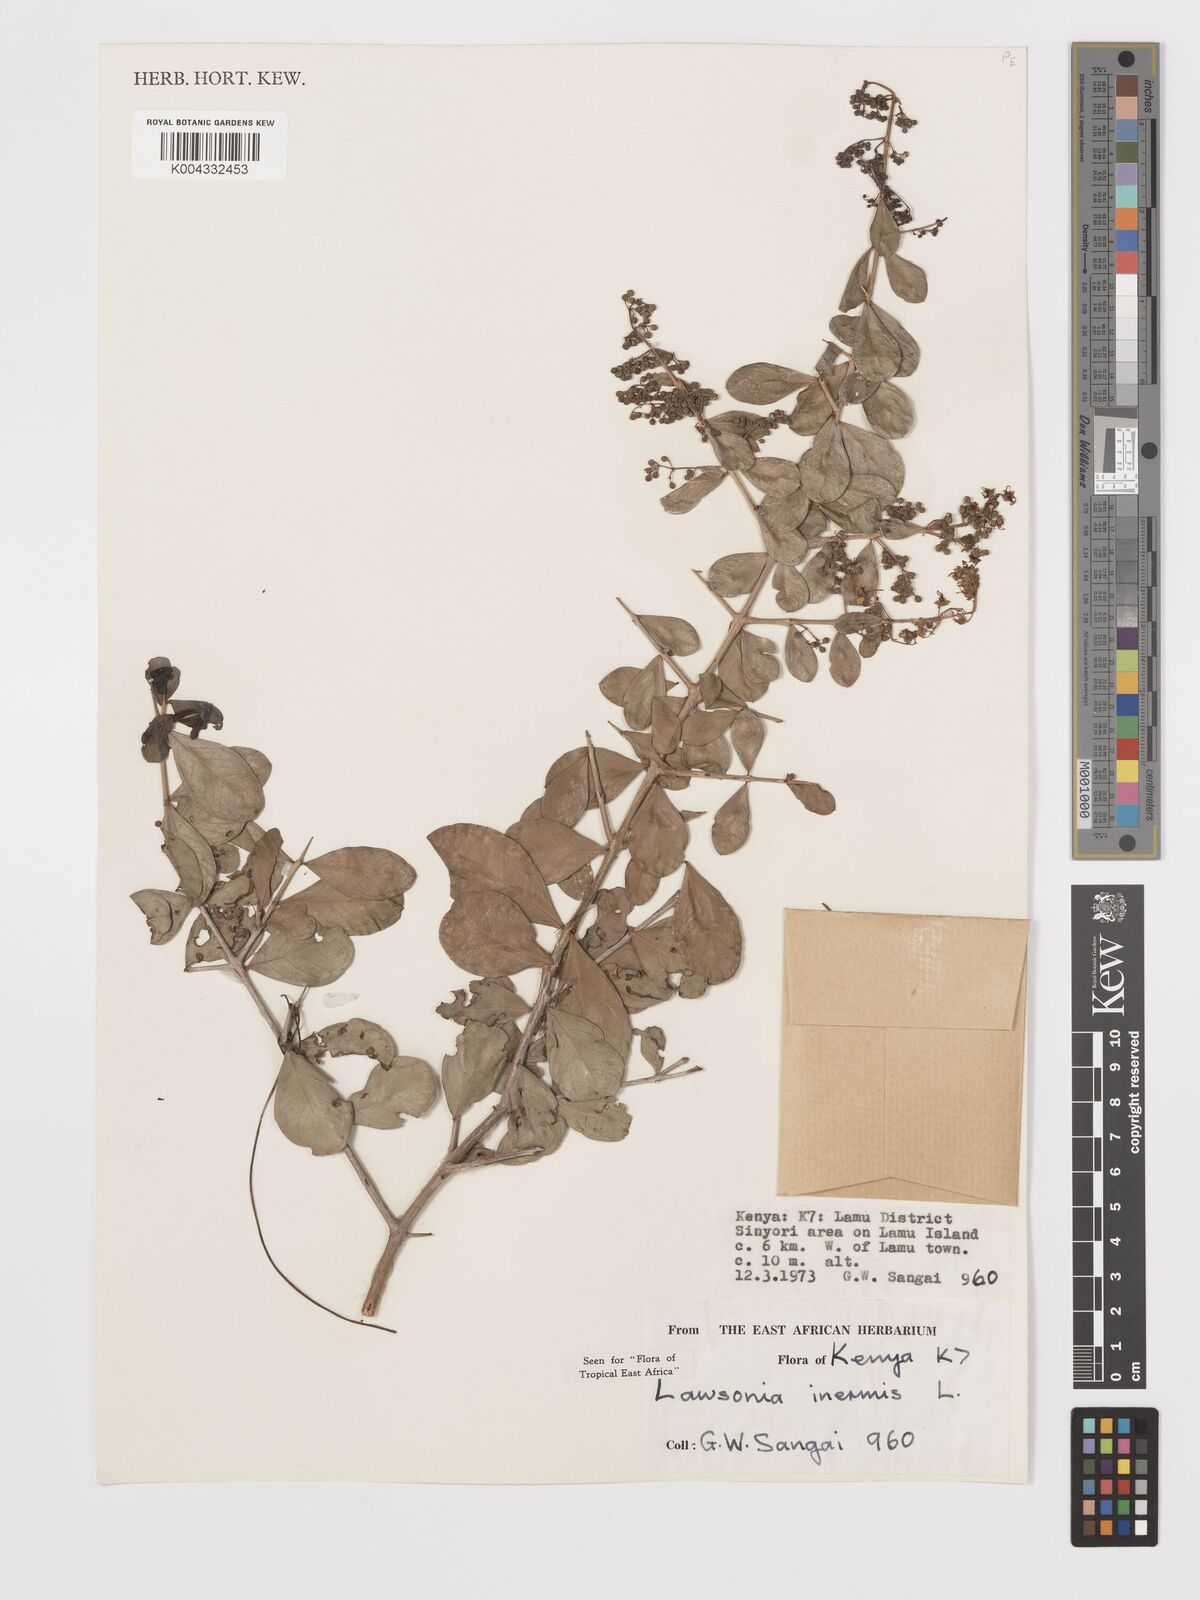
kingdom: Plantae
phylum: Tracheophyta
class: Magnoliopsida
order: Myrtales
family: Lythraceae
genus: Lawsonia
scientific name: Lawsonia inermis
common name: Henna
